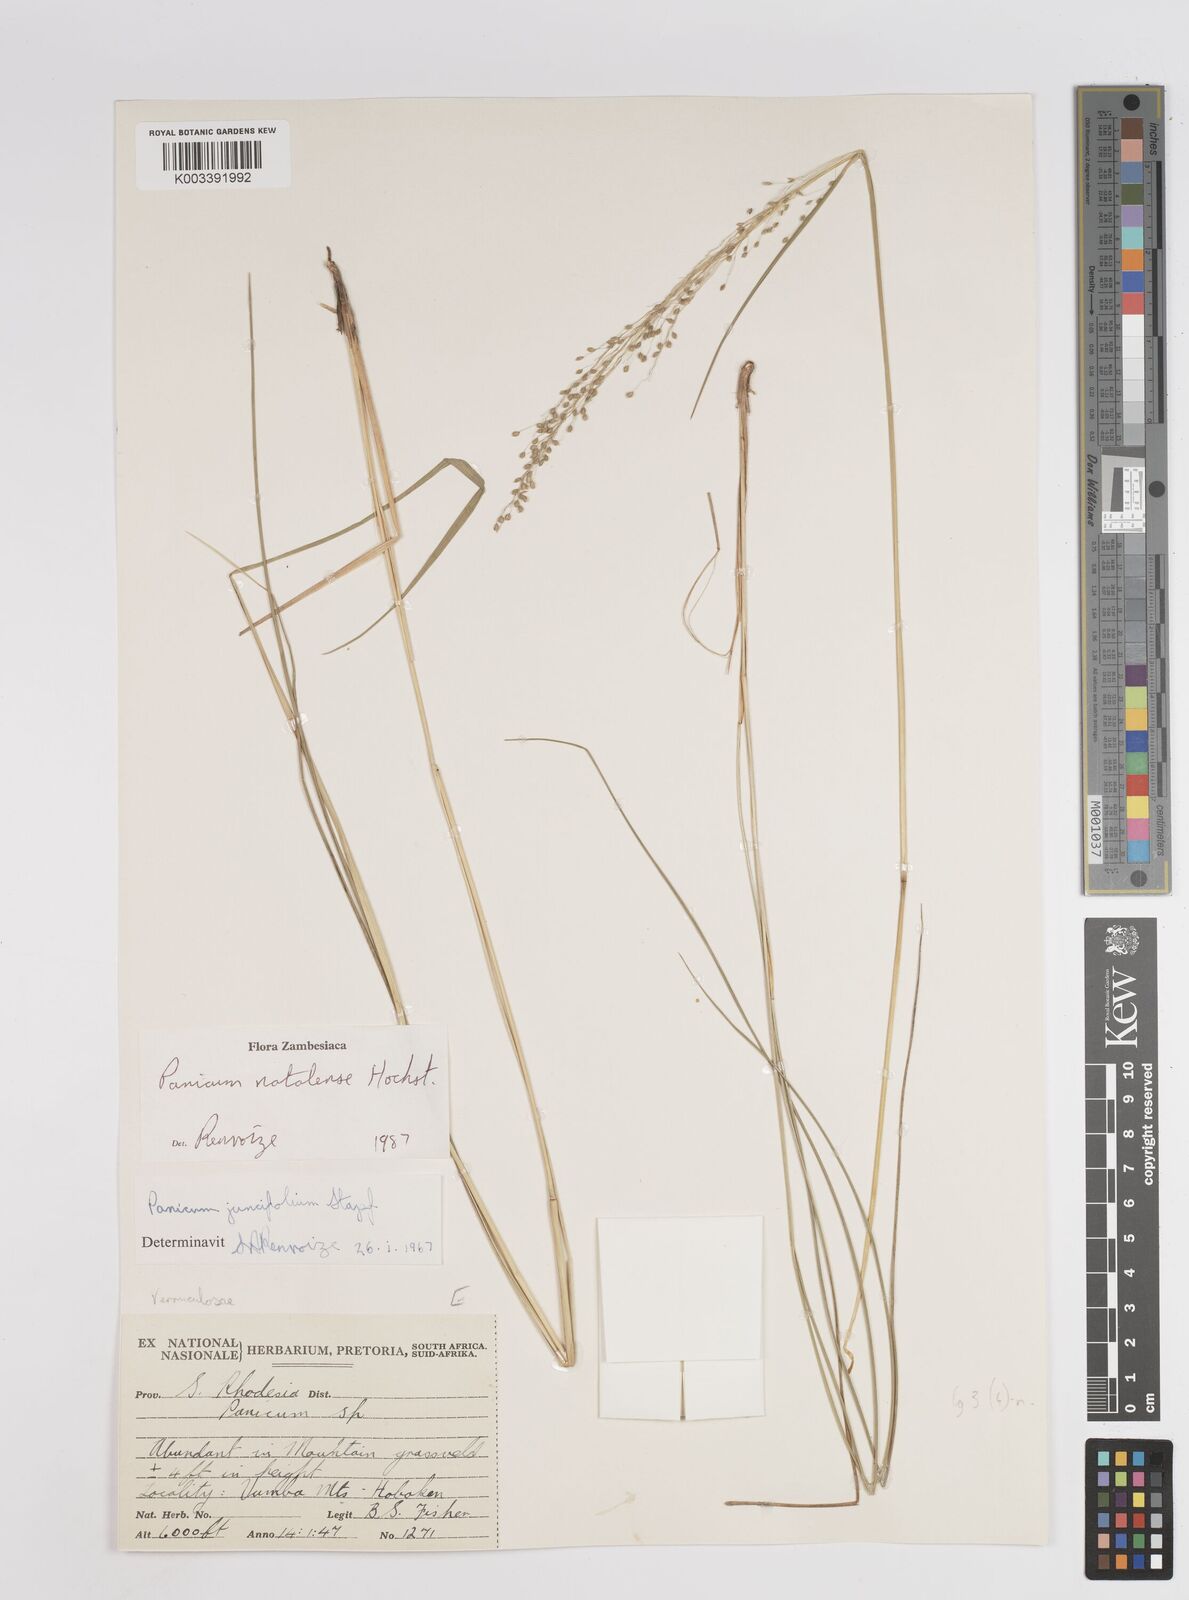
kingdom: Plantae
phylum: Tracheophyta
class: Liliopsida
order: Poales
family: Poaceae
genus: Trichanthecium
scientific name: Trichanthecium natalense
